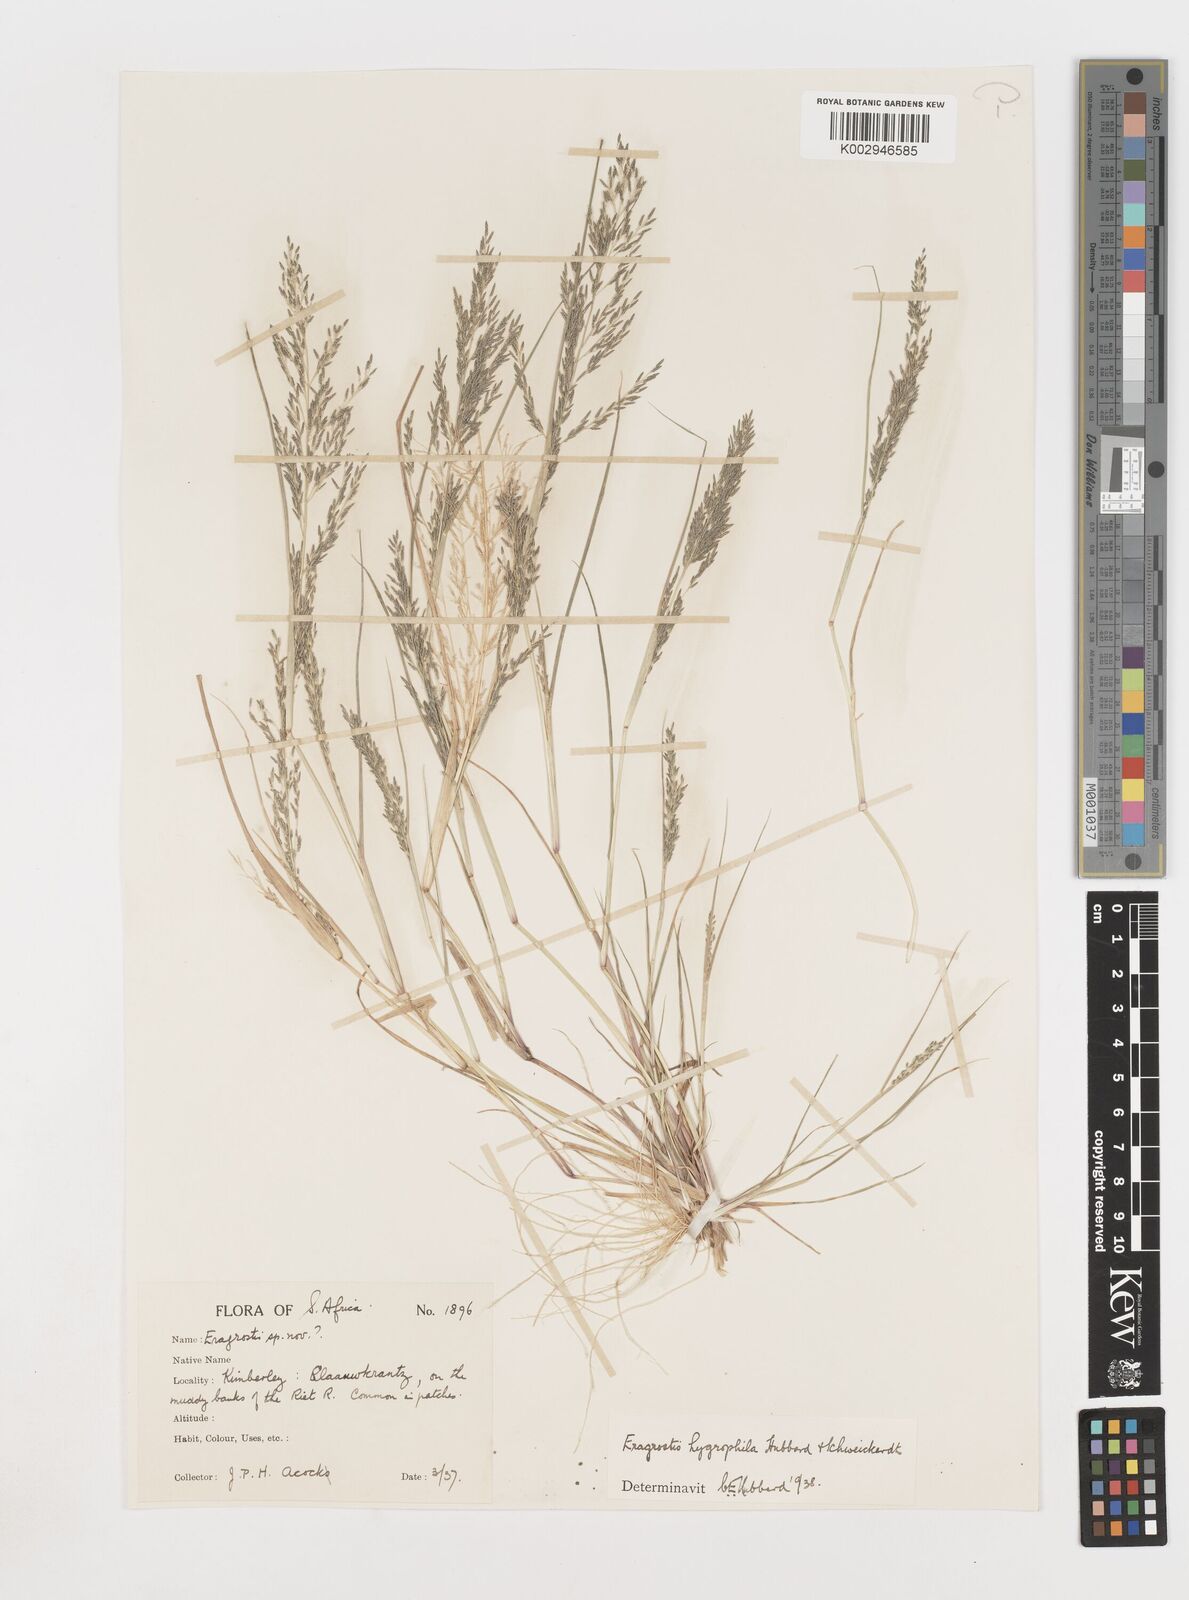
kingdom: Plantae
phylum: Tracheophyta
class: Liliopsida
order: Poales
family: Poaceae
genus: Eragrostis
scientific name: Eragrostis homomalla
